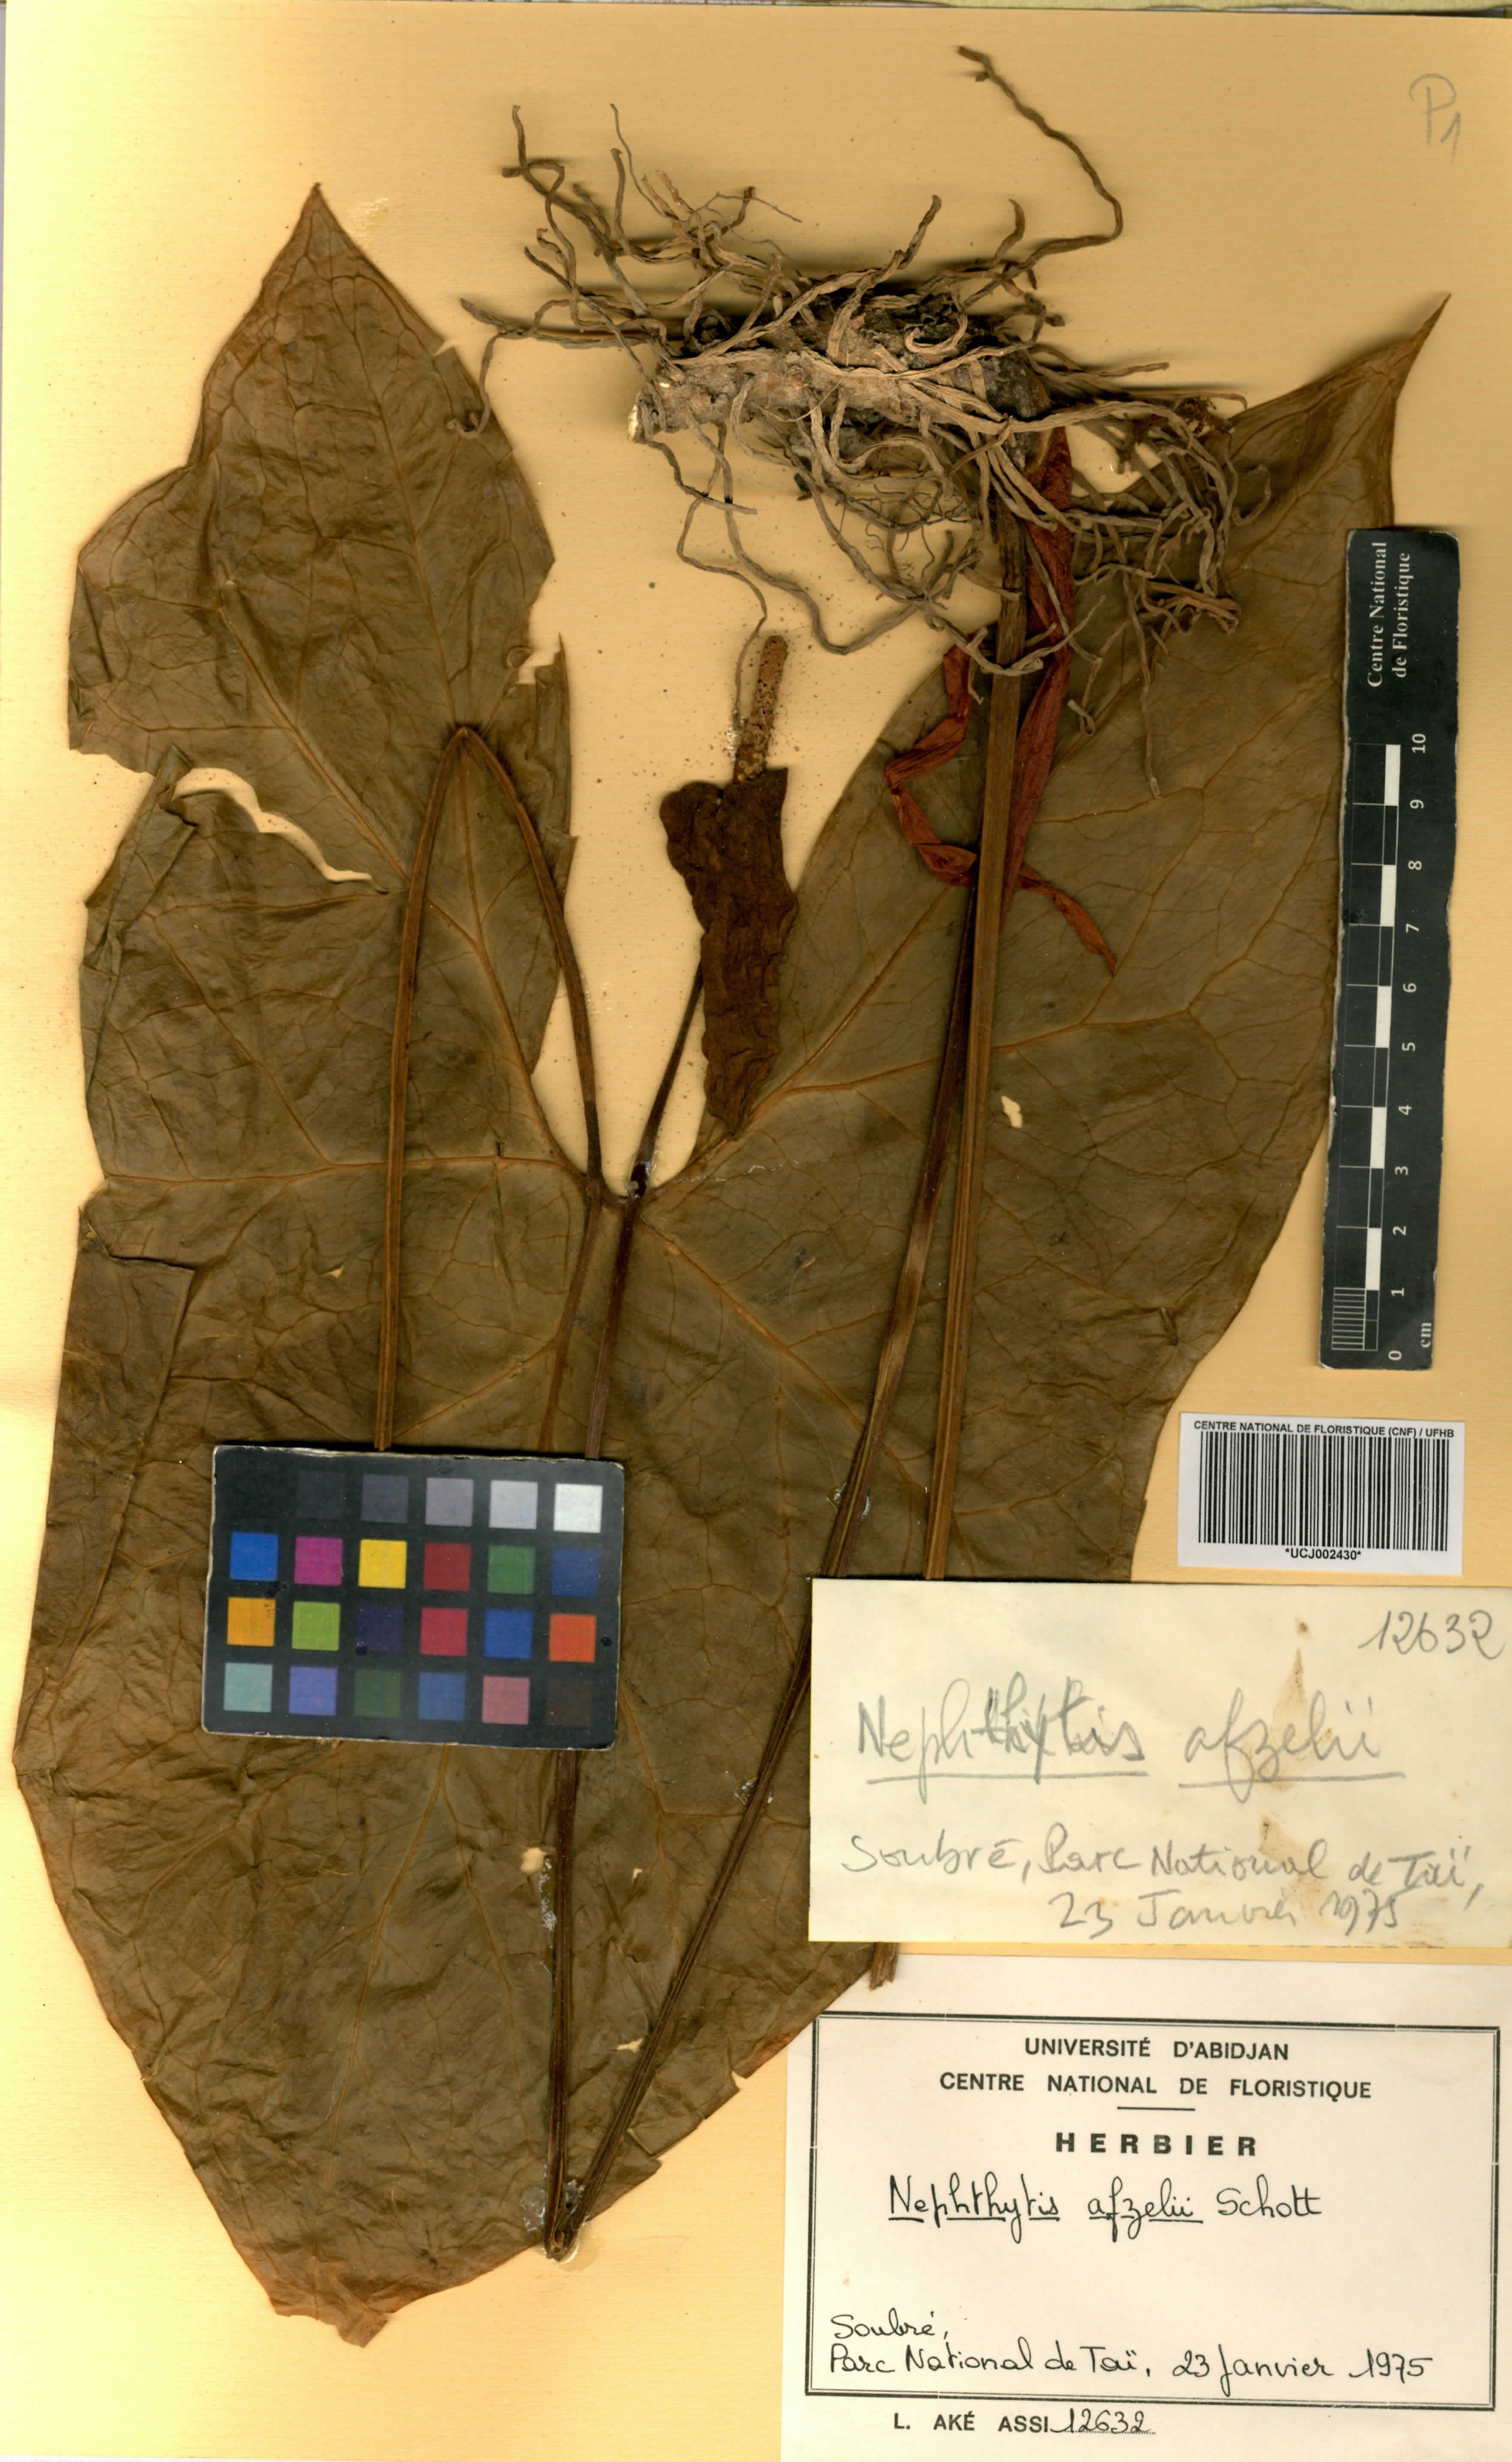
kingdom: Plantae
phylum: Tracheophyta
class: Liliopsida
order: Alismatales
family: Araceae
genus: Nephthytis
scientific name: Nephthytis afzelii
